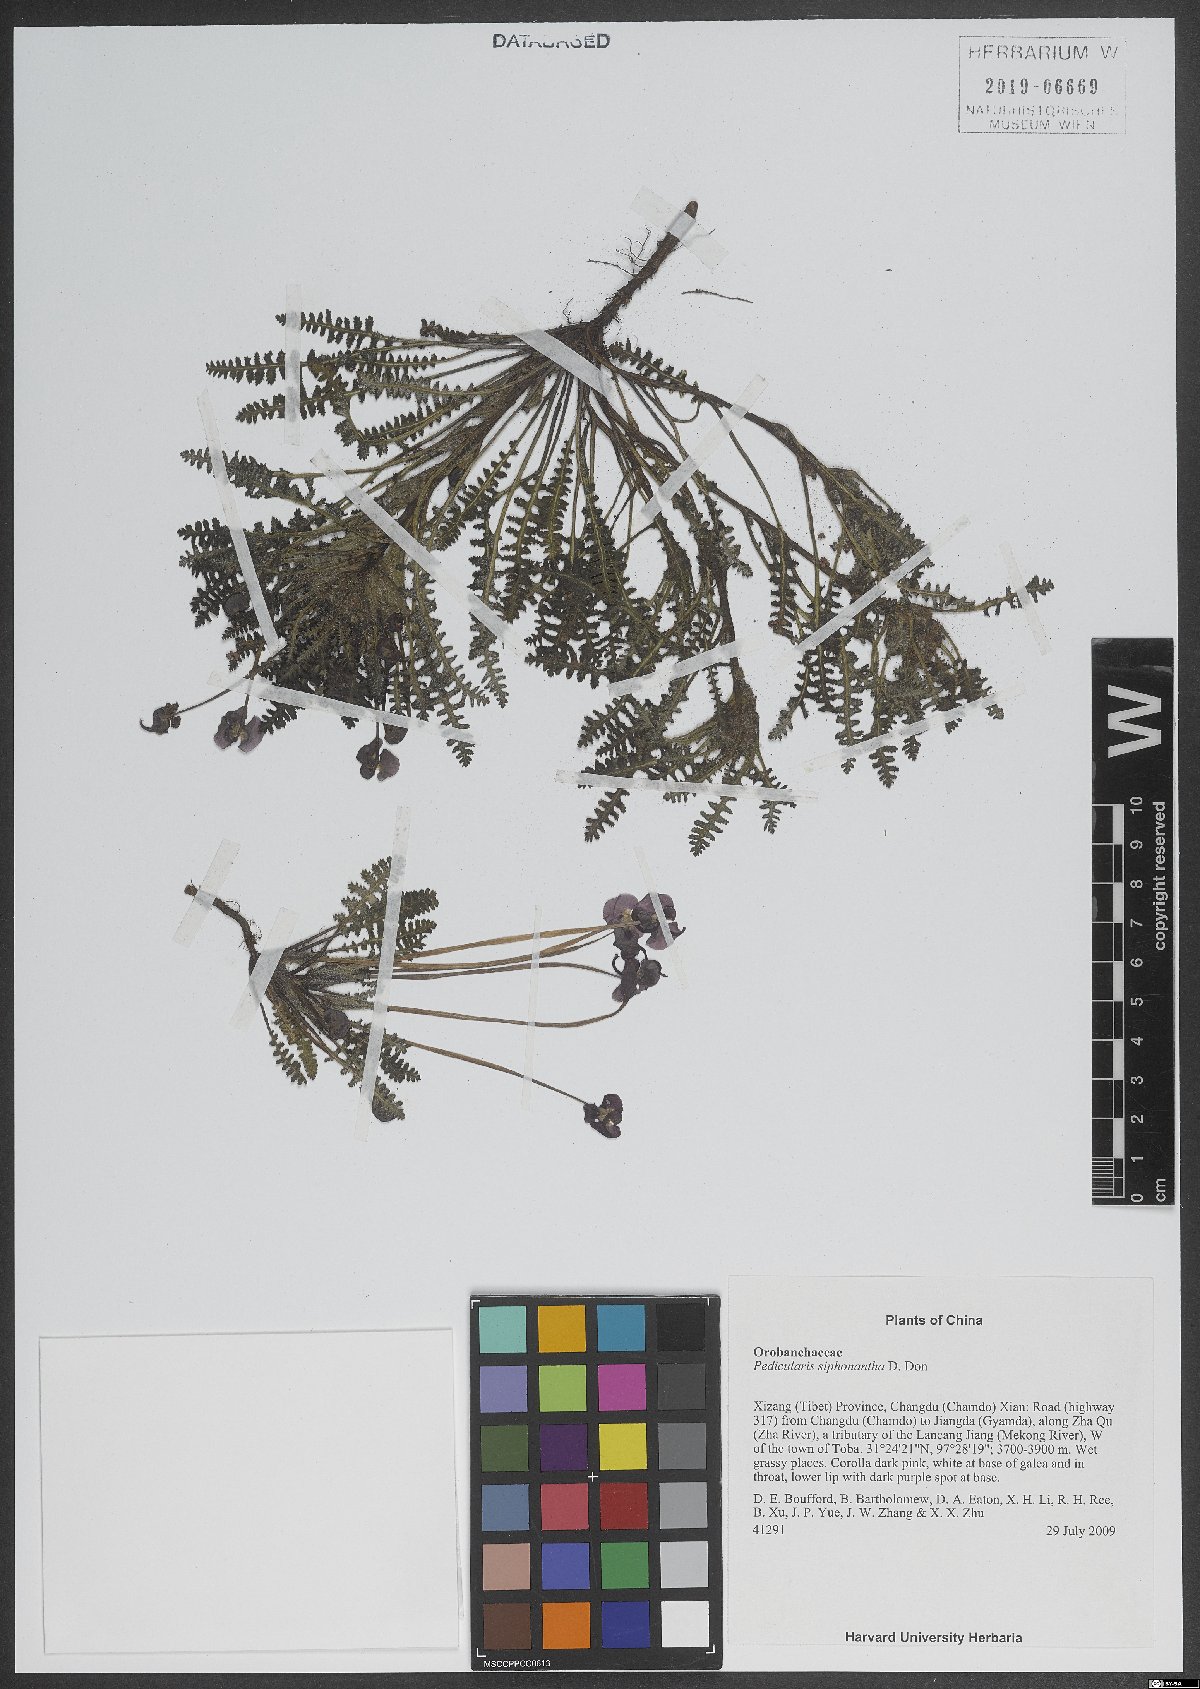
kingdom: Plantae
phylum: Tracheophyta
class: Magnoliopsida
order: Lamiales
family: Orobanchaceae
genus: Pedicularis
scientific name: Pedicularis siphonantha
